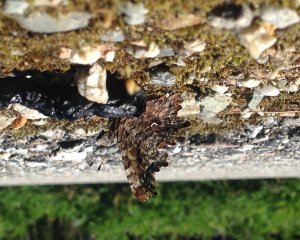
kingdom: Animalia
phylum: Arthropoda
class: Insecta
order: Lepidoptera
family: Nymphalidae
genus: Polygonia
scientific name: Polygonia faunus
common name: Green Comma
